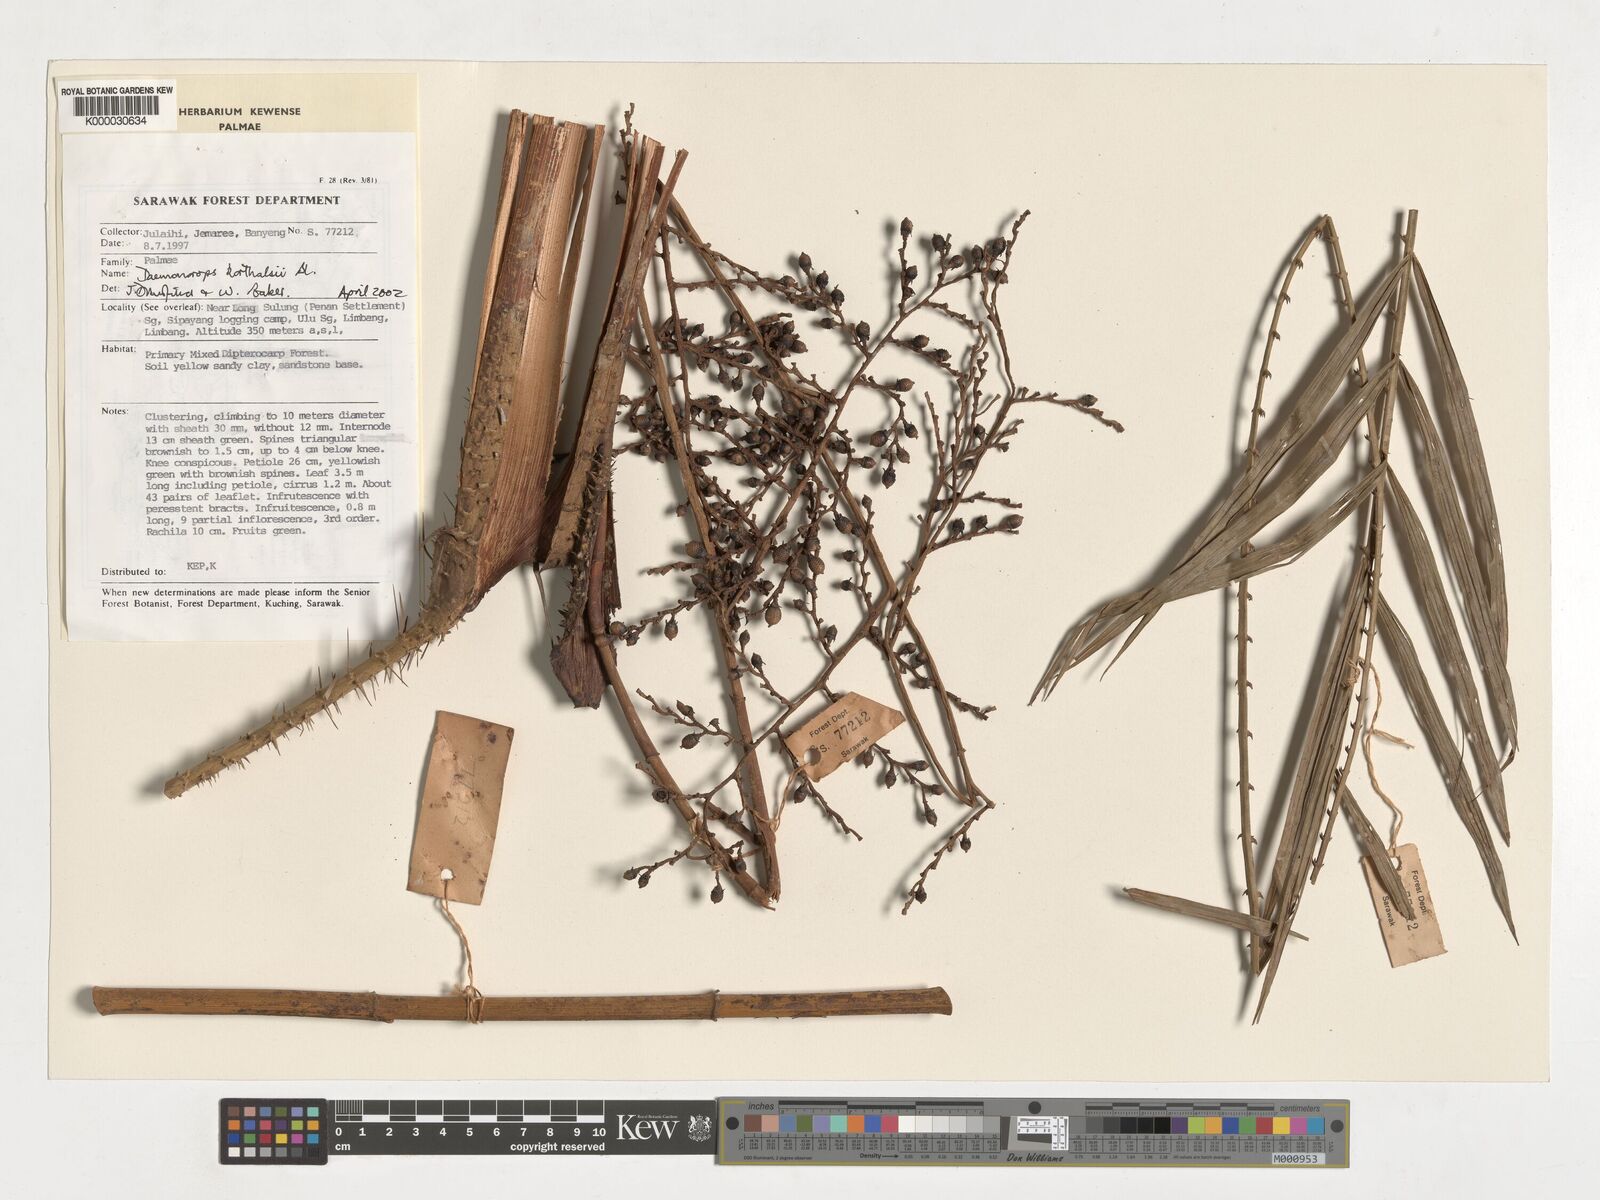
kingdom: Plantae
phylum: Tracheophyta
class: Liliopsida
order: Arecales
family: Arecaceae
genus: Calamus
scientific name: Calamus hirsutus
